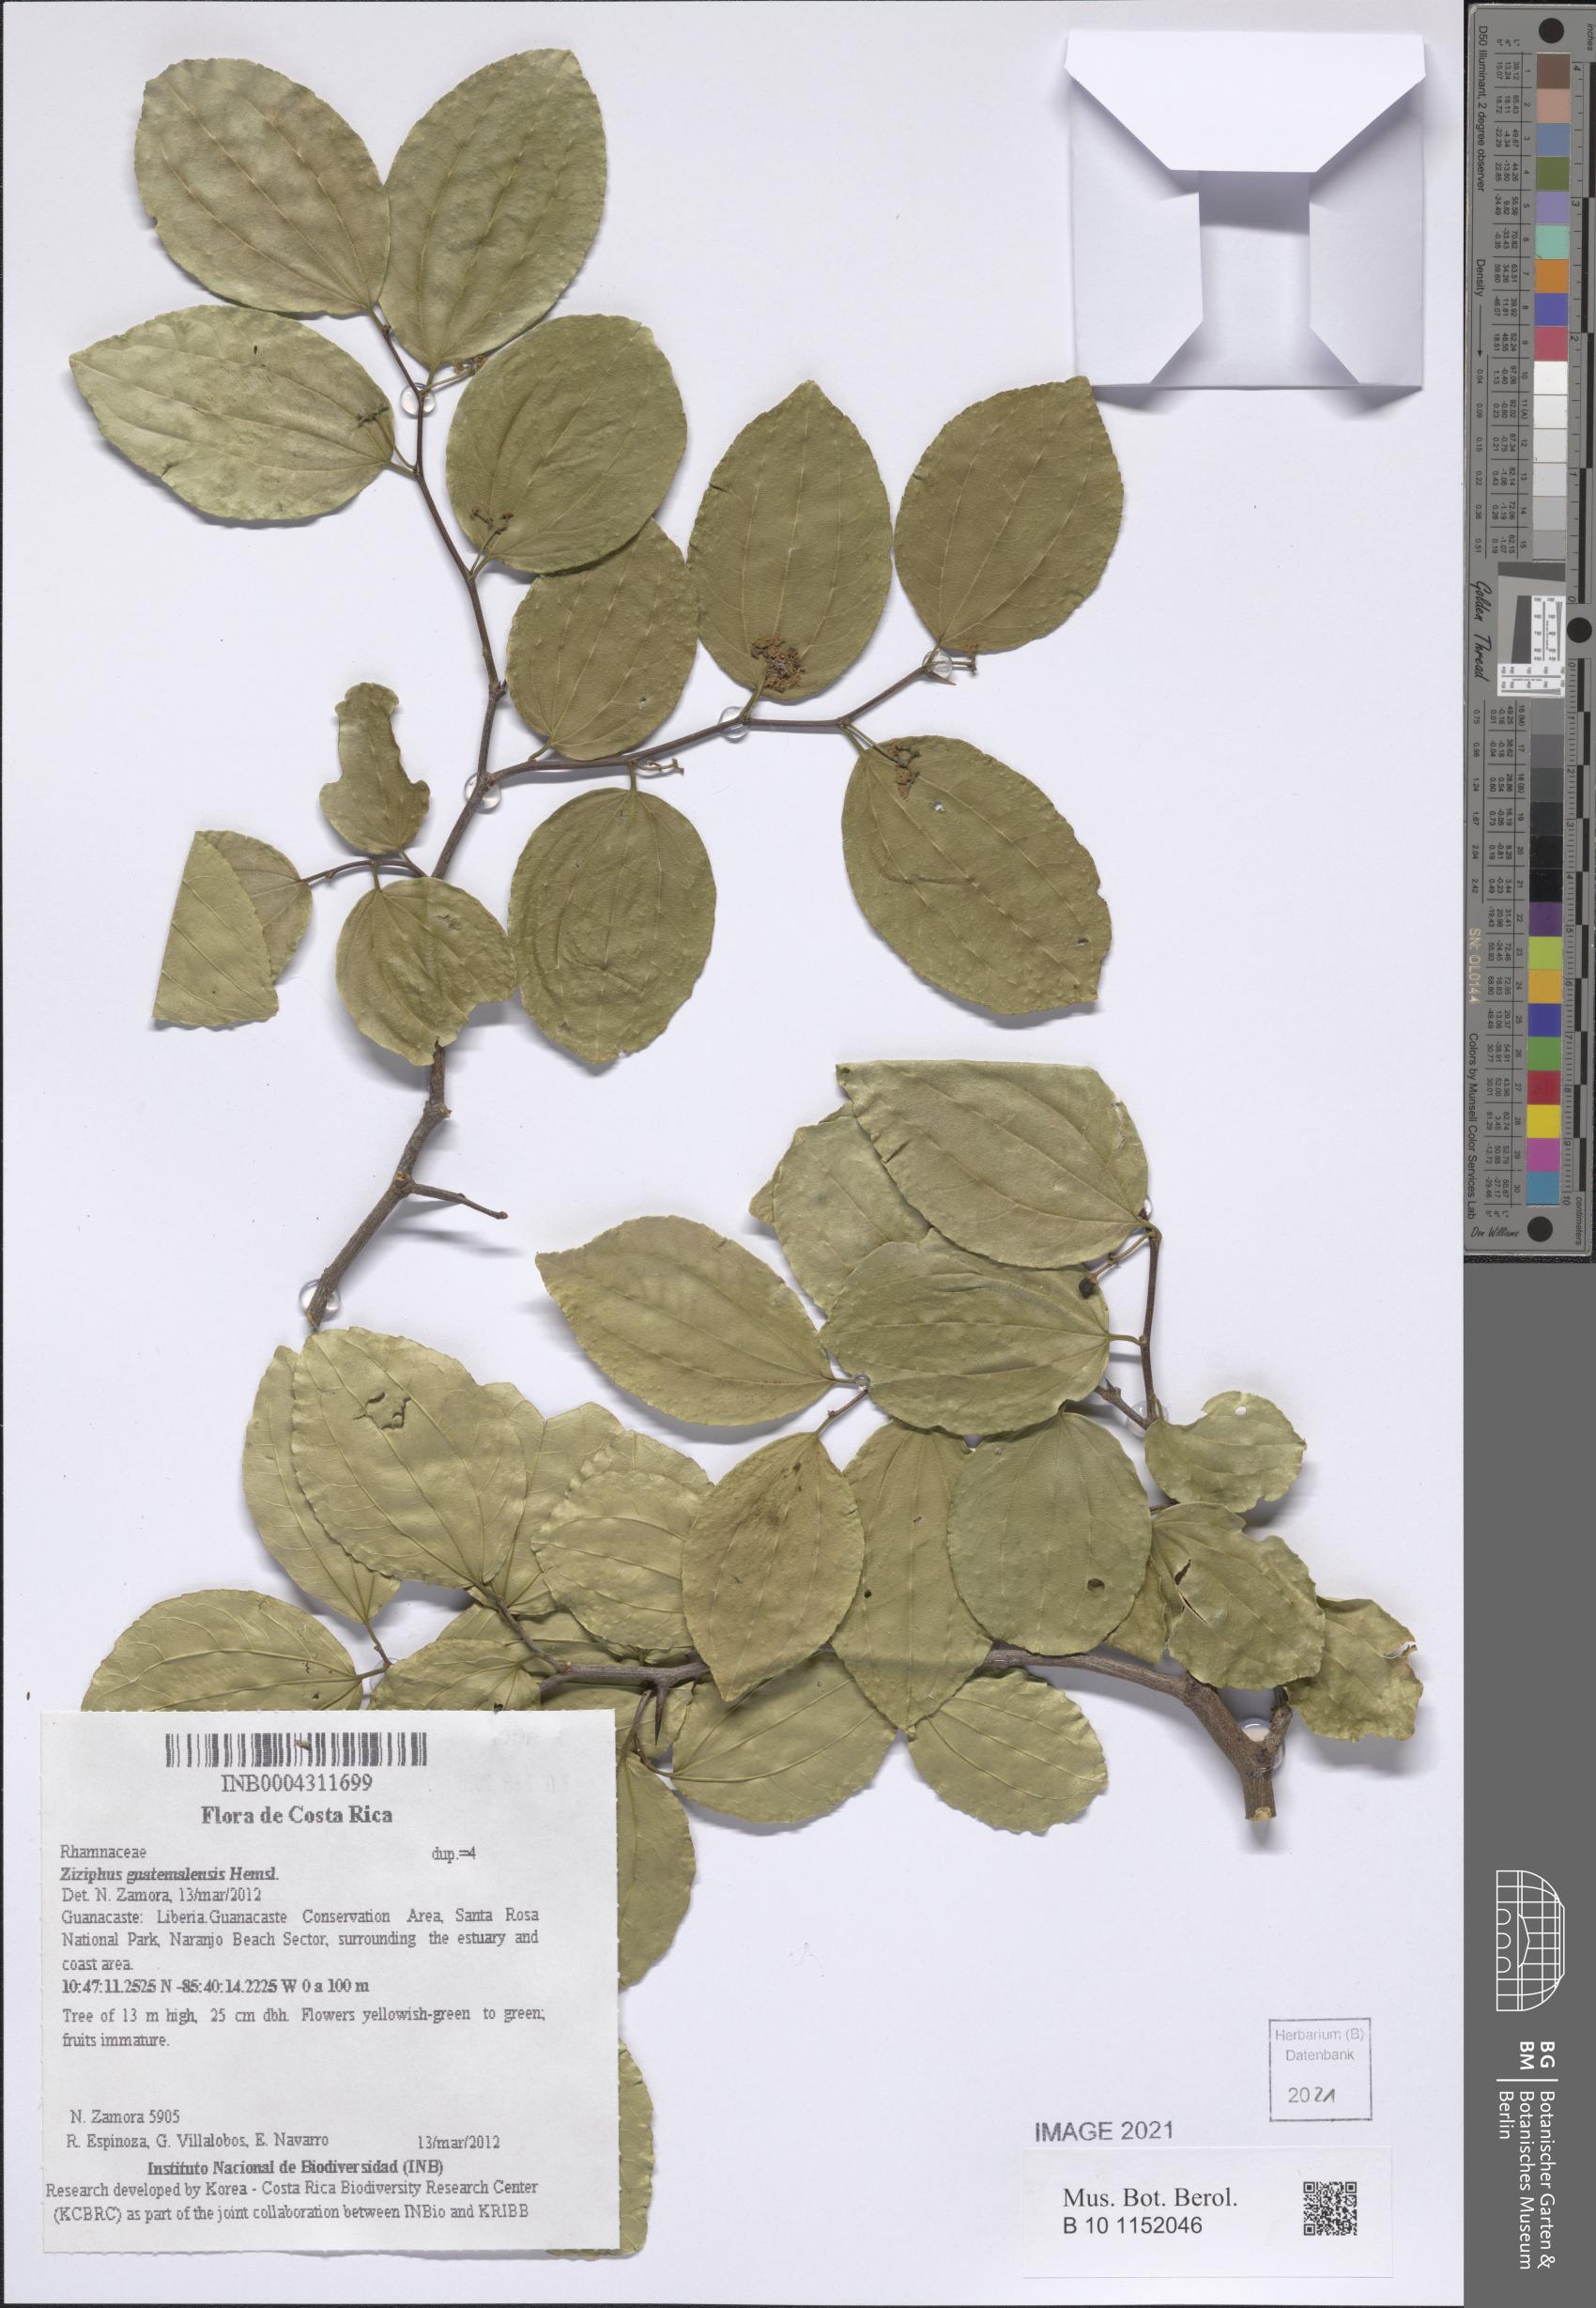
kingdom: Plantae
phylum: Tracheophyta
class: Magnoliopsida
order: Rosales
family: Rhamnaceae
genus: Sarcomphalus
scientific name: Sarcomphalus guatemalensis
